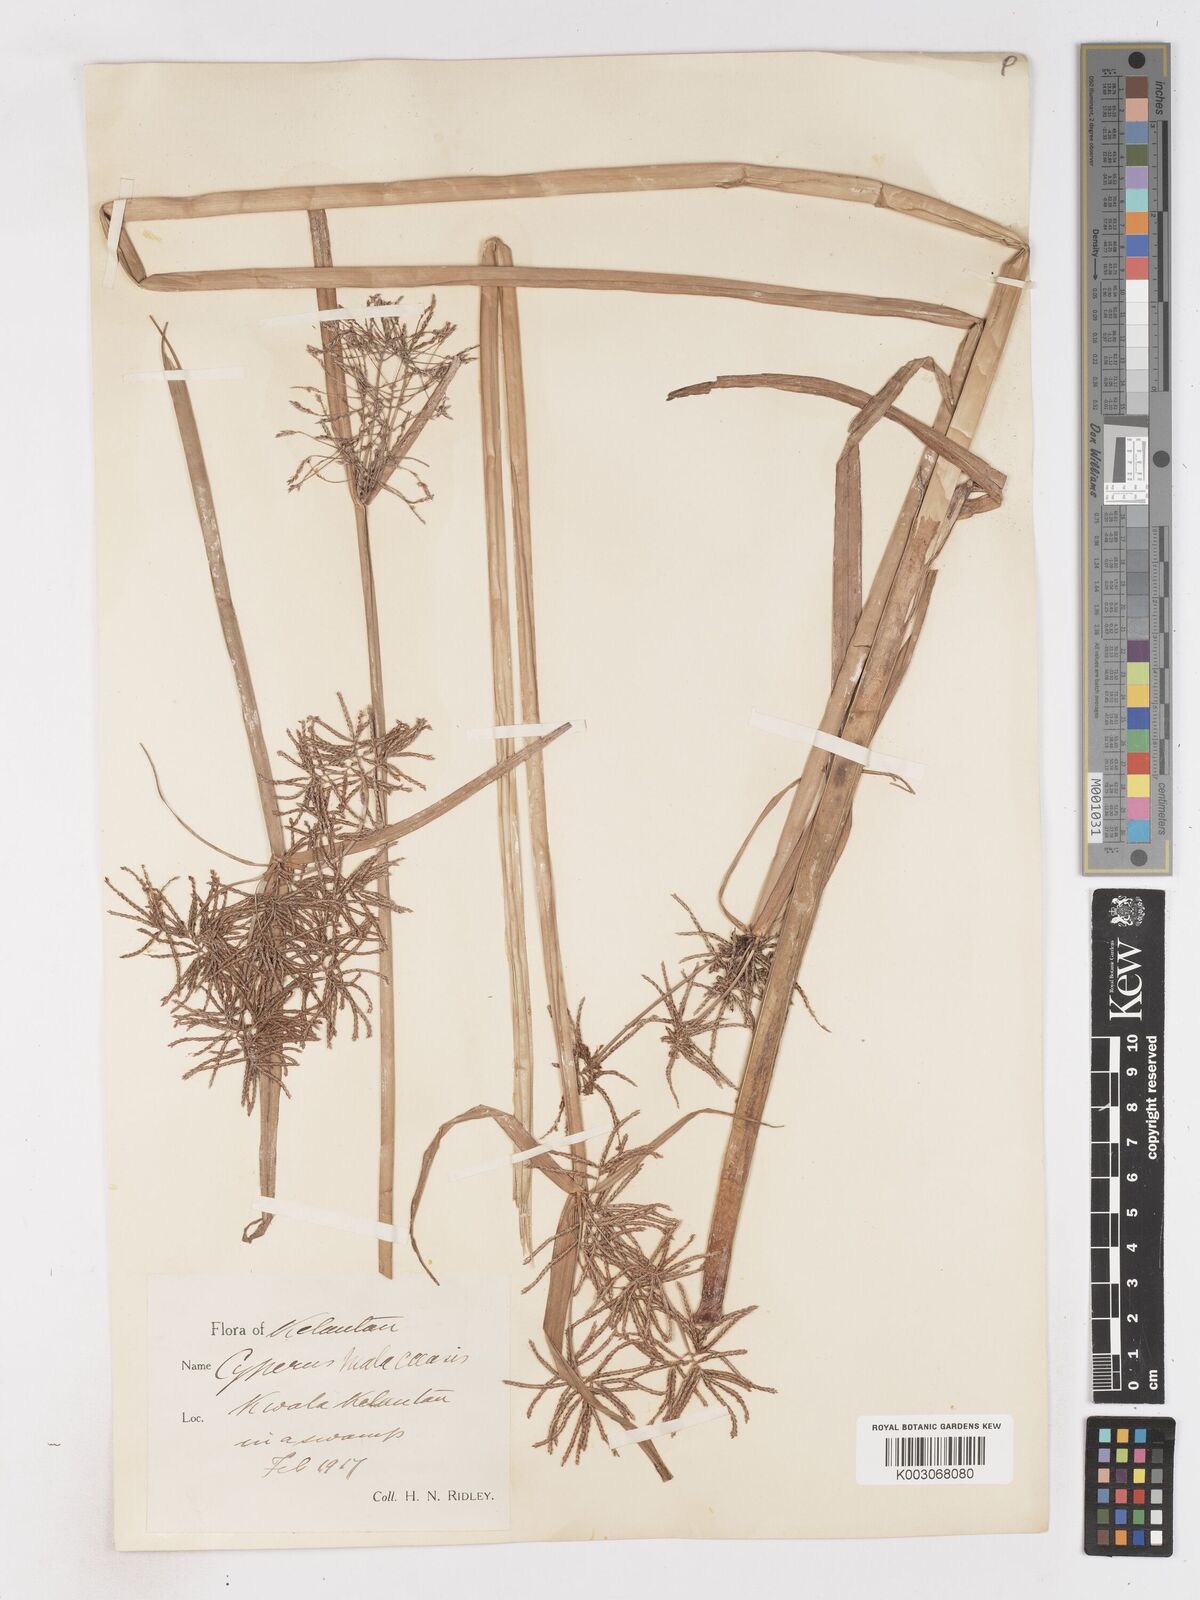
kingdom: Plantae
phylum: Tracheophyta
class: Liliopsida
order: Poales
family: Cyperaceae
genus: Cyperus
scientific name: Cyperus malaccensis
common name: Shichito matgrass
